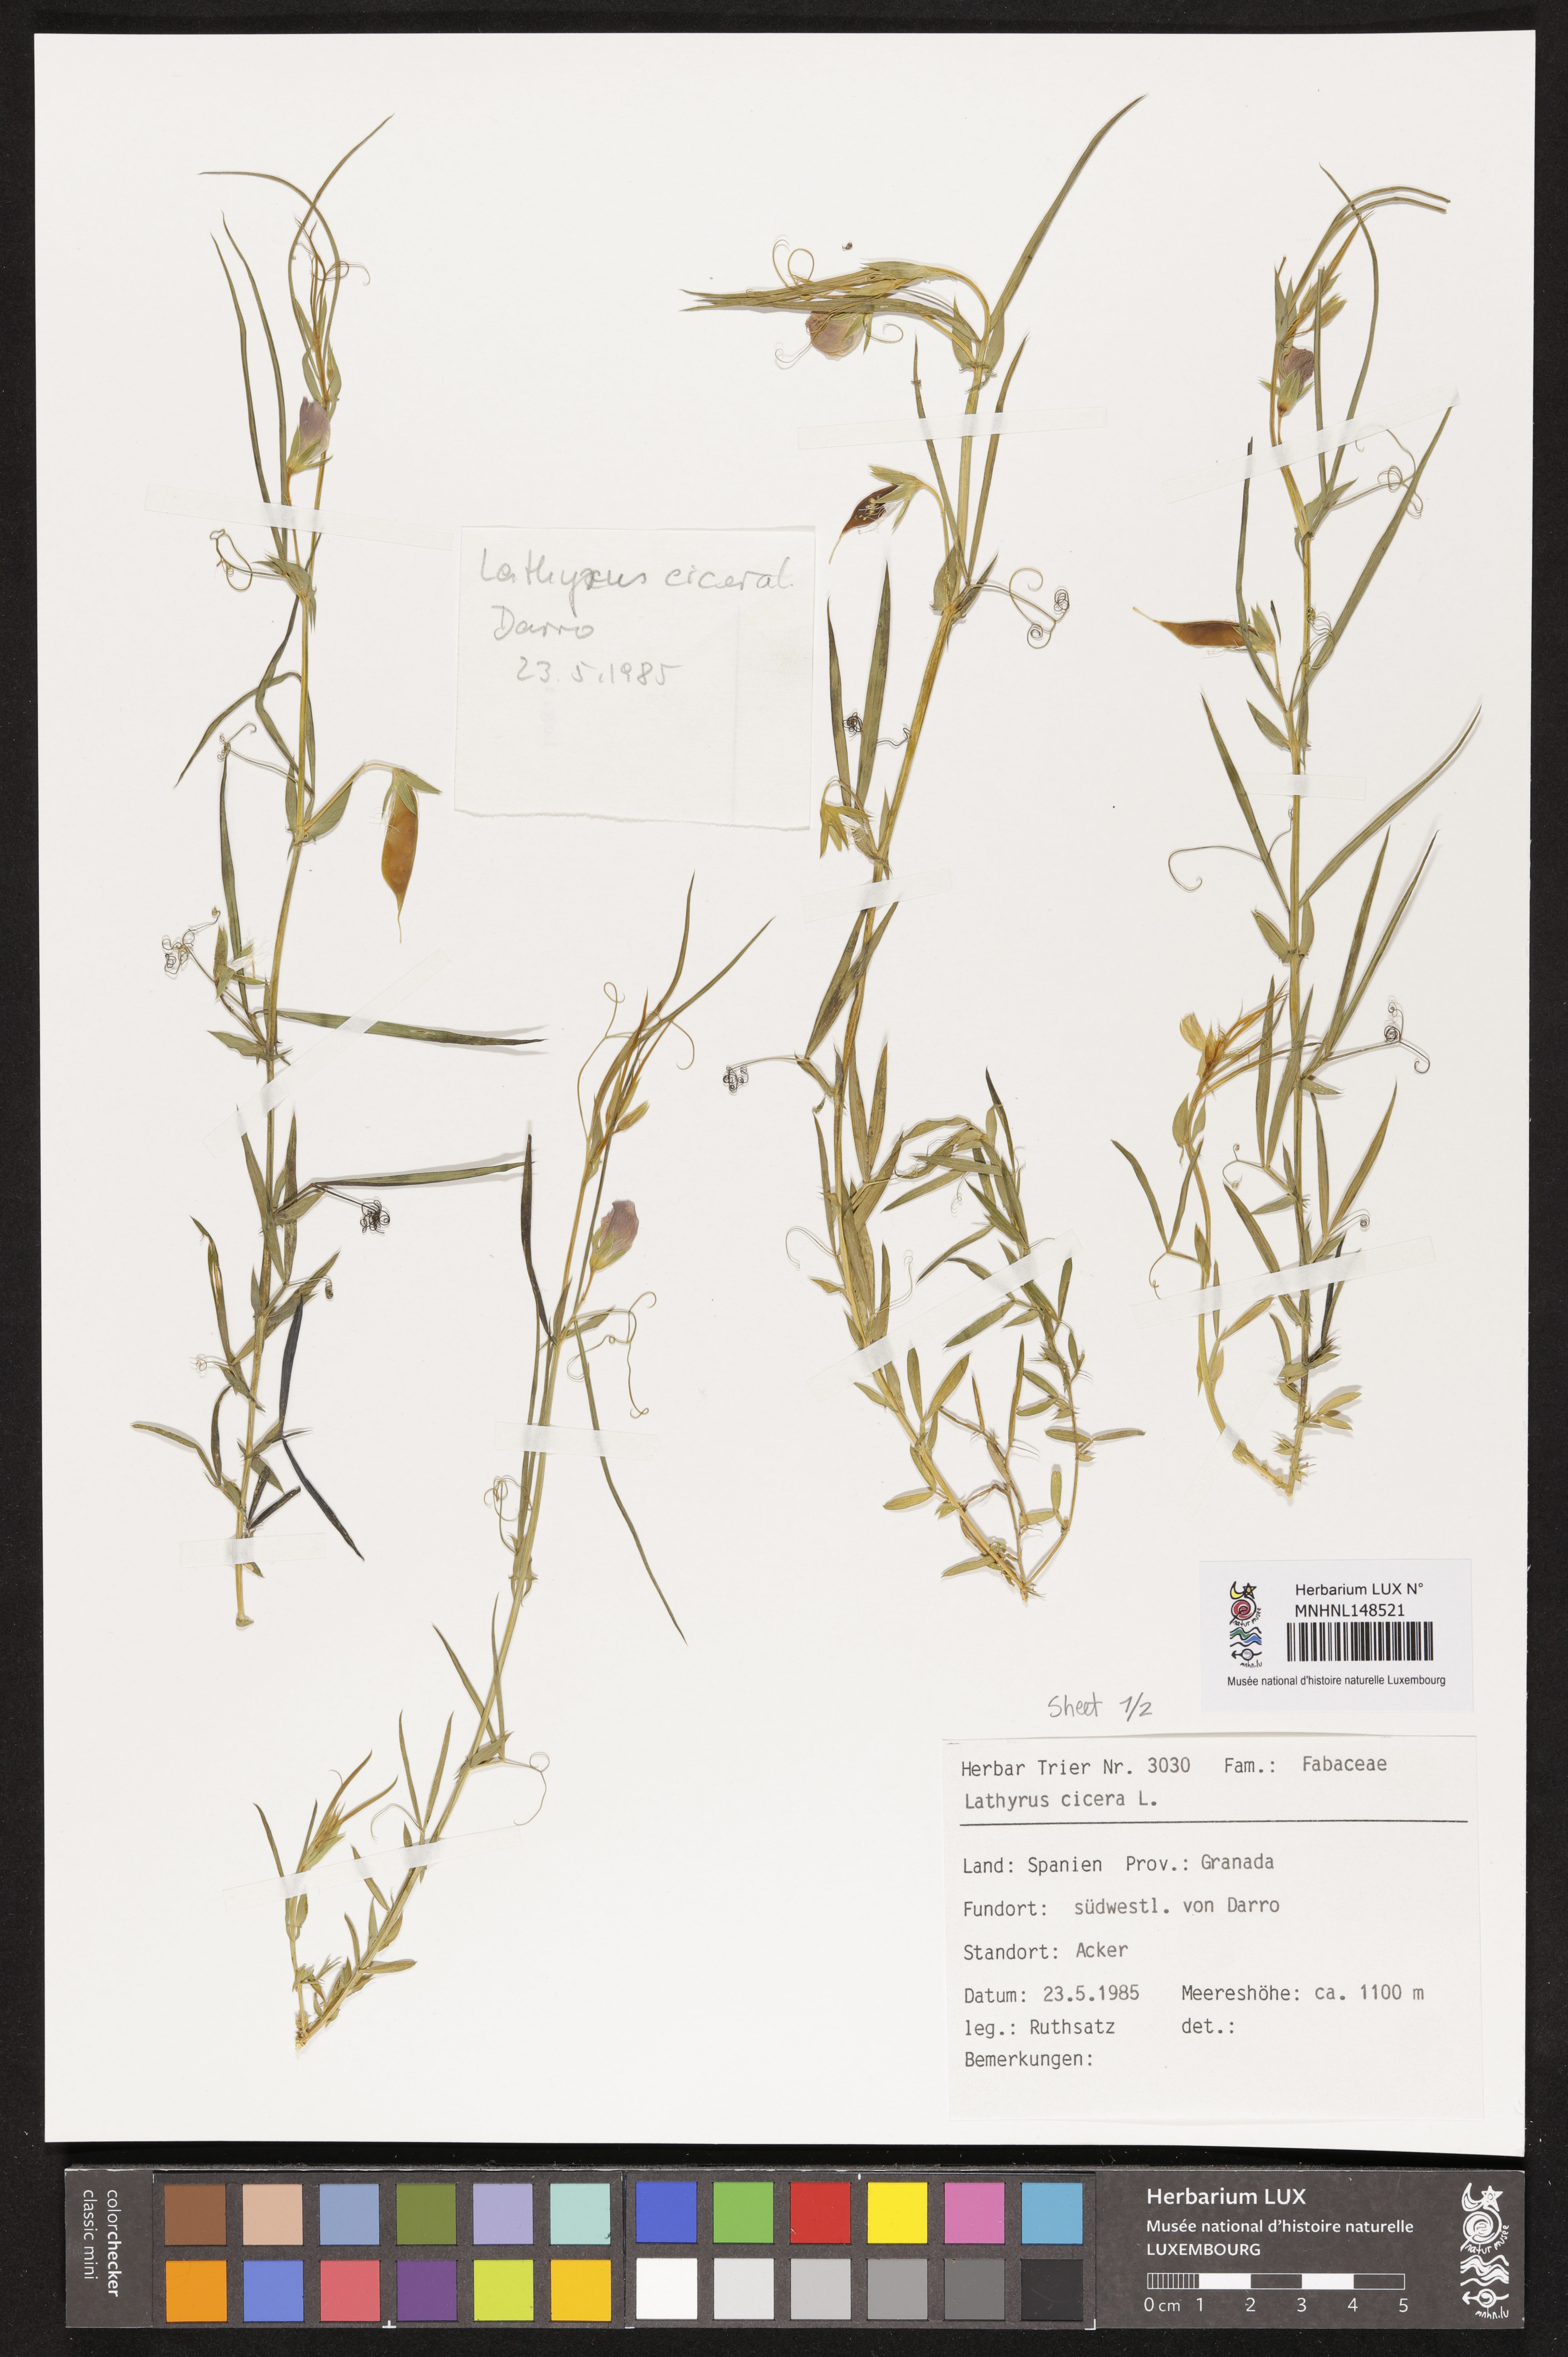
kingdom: Plantae
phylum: Tracheophyta
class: Magnoliopsida
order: Fabales
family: Fabaceae
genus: Lathyrus
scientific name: Lathyrus cicera
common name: Red vetchling
